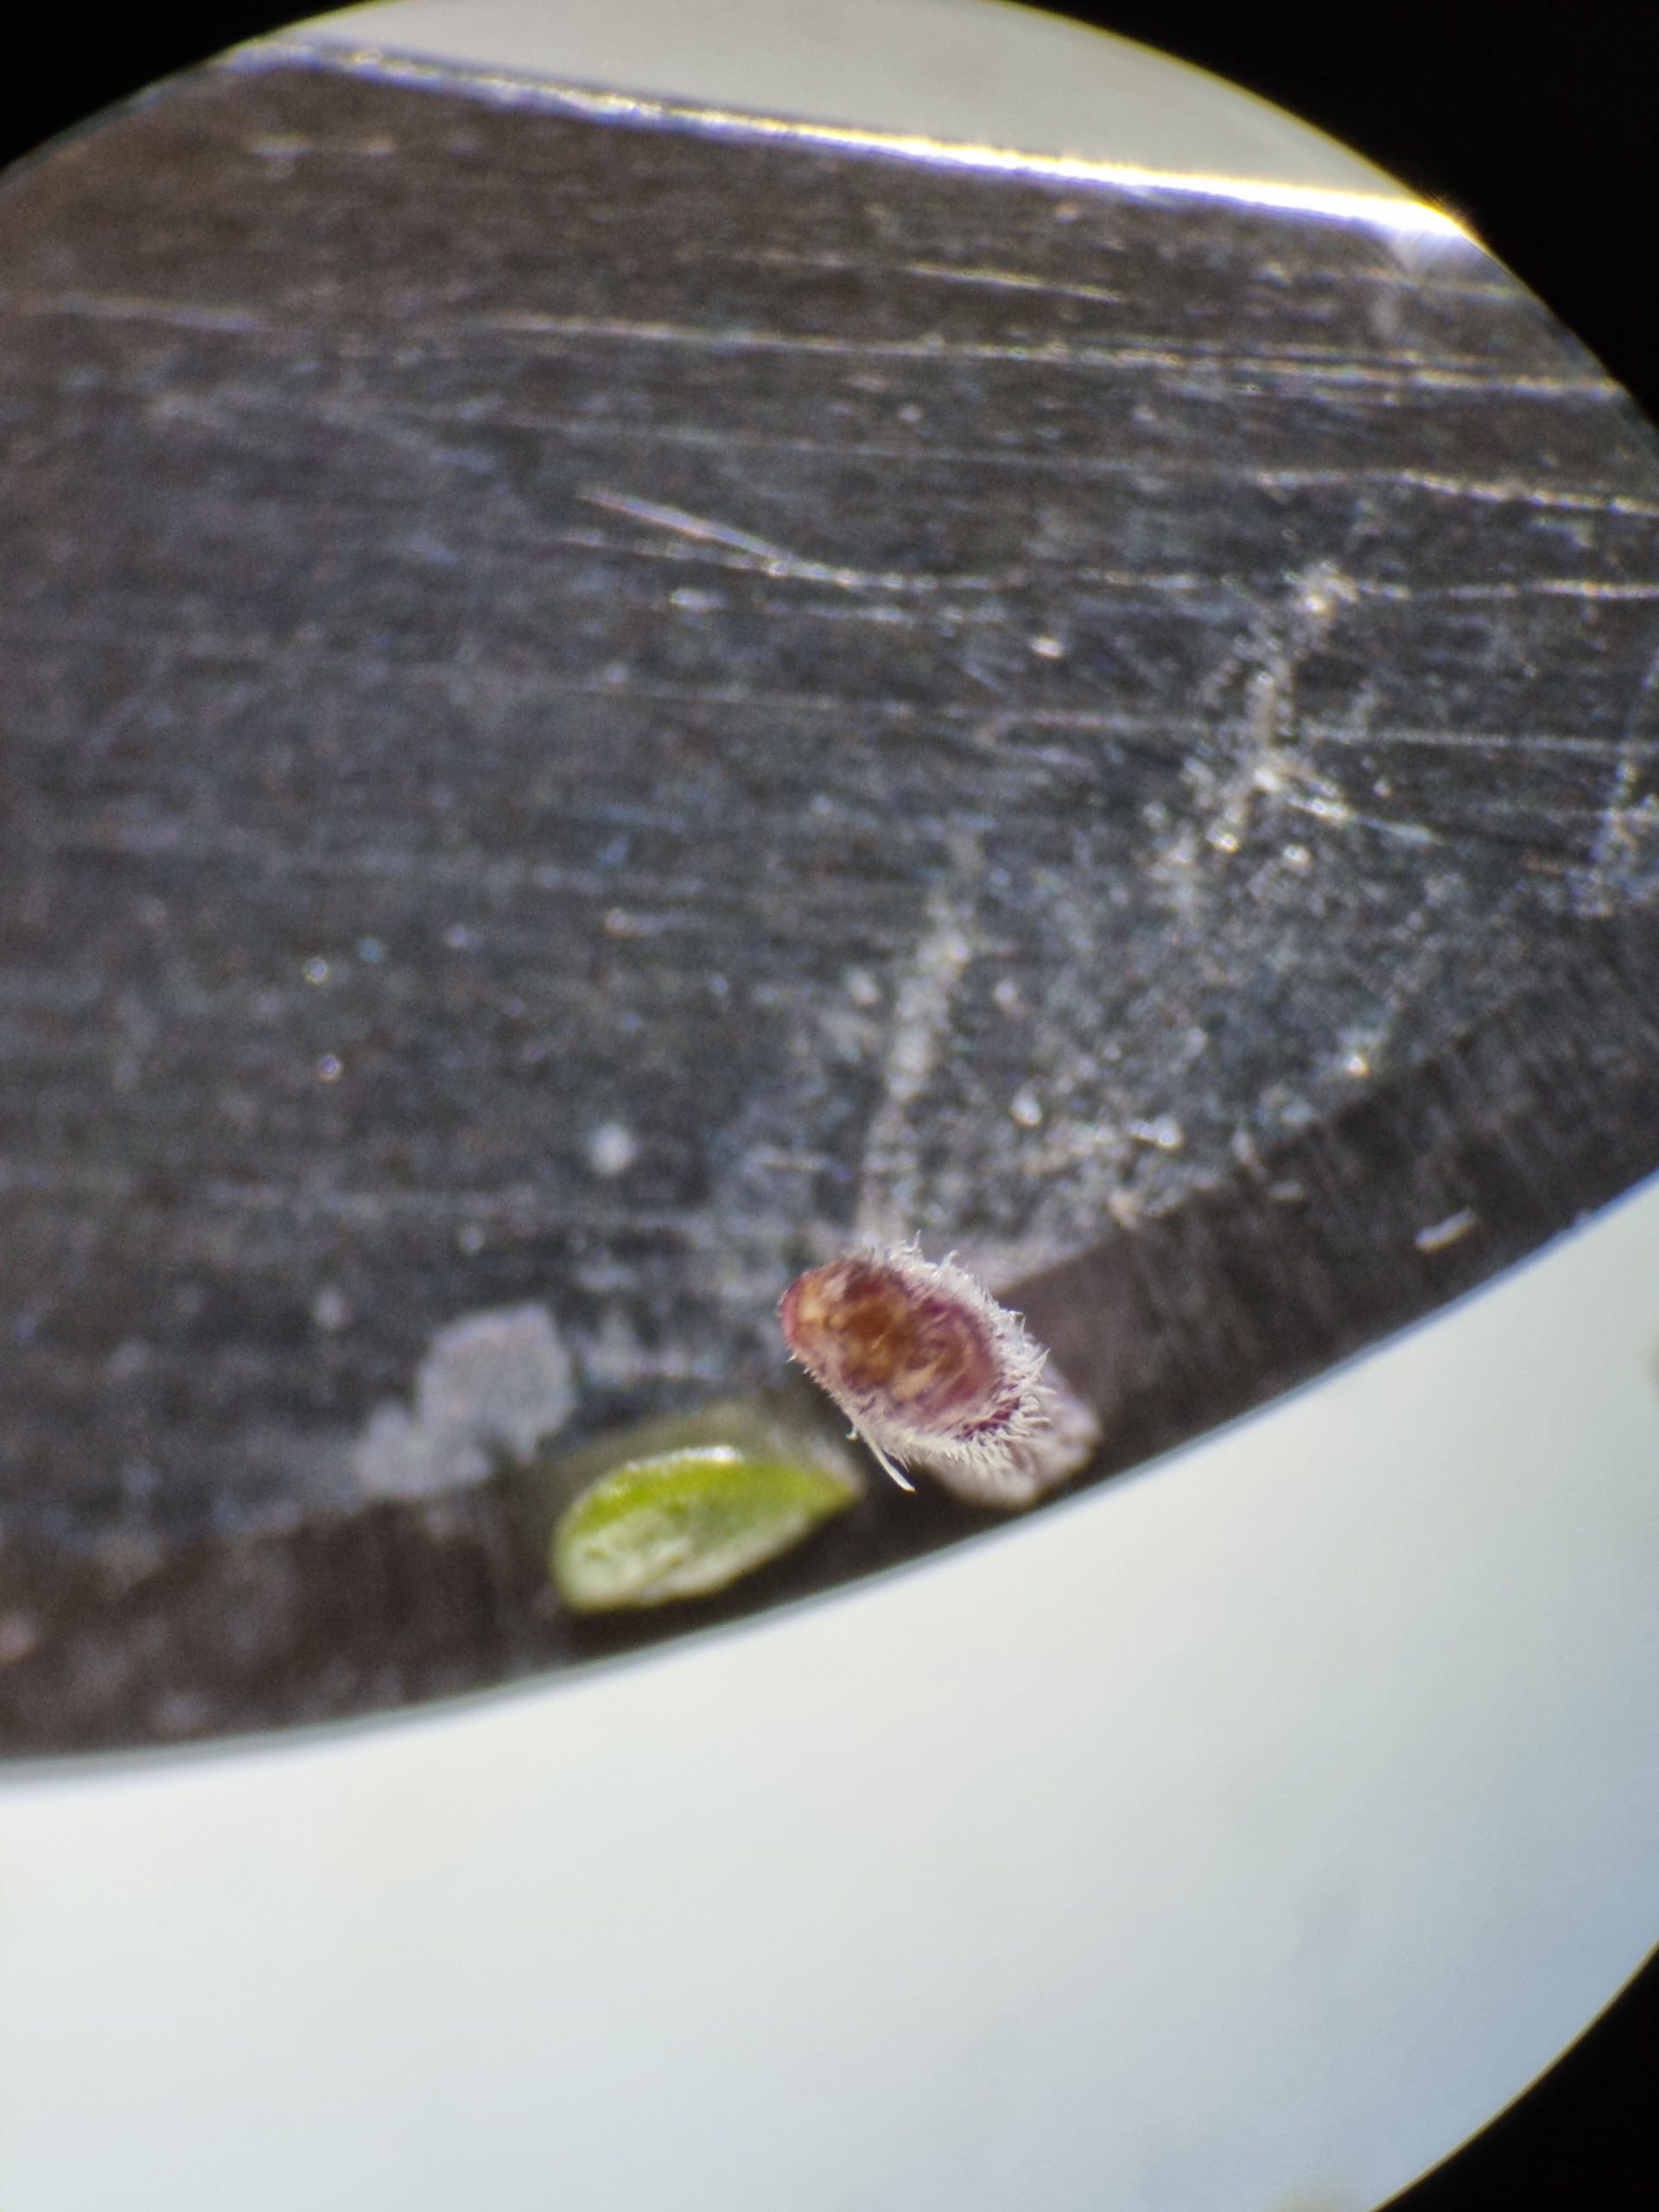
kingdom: Plantae
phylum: Tracheophyta
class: Magnoliopsida
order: Lamiales
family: Lamiaceae
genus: Thymus
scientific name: Thymus serpyllum
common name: Smalbladet timian
